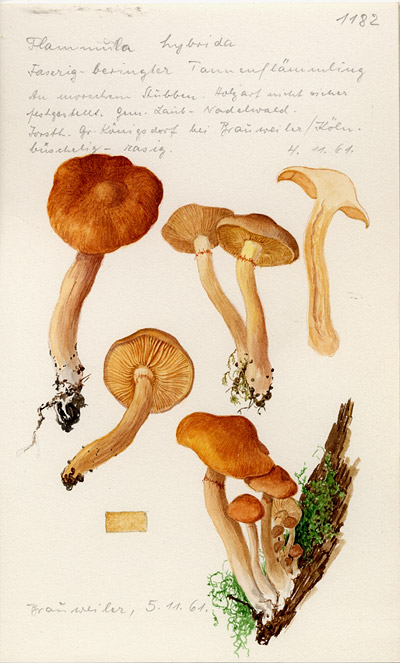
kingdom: Fungi
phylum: Basidiomycota
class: Agaricomycetes
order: Agaricales
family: Hymenogastraceae
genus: Gymnopilus
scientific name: Gymnopilus penetrans
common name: Common rustgill
